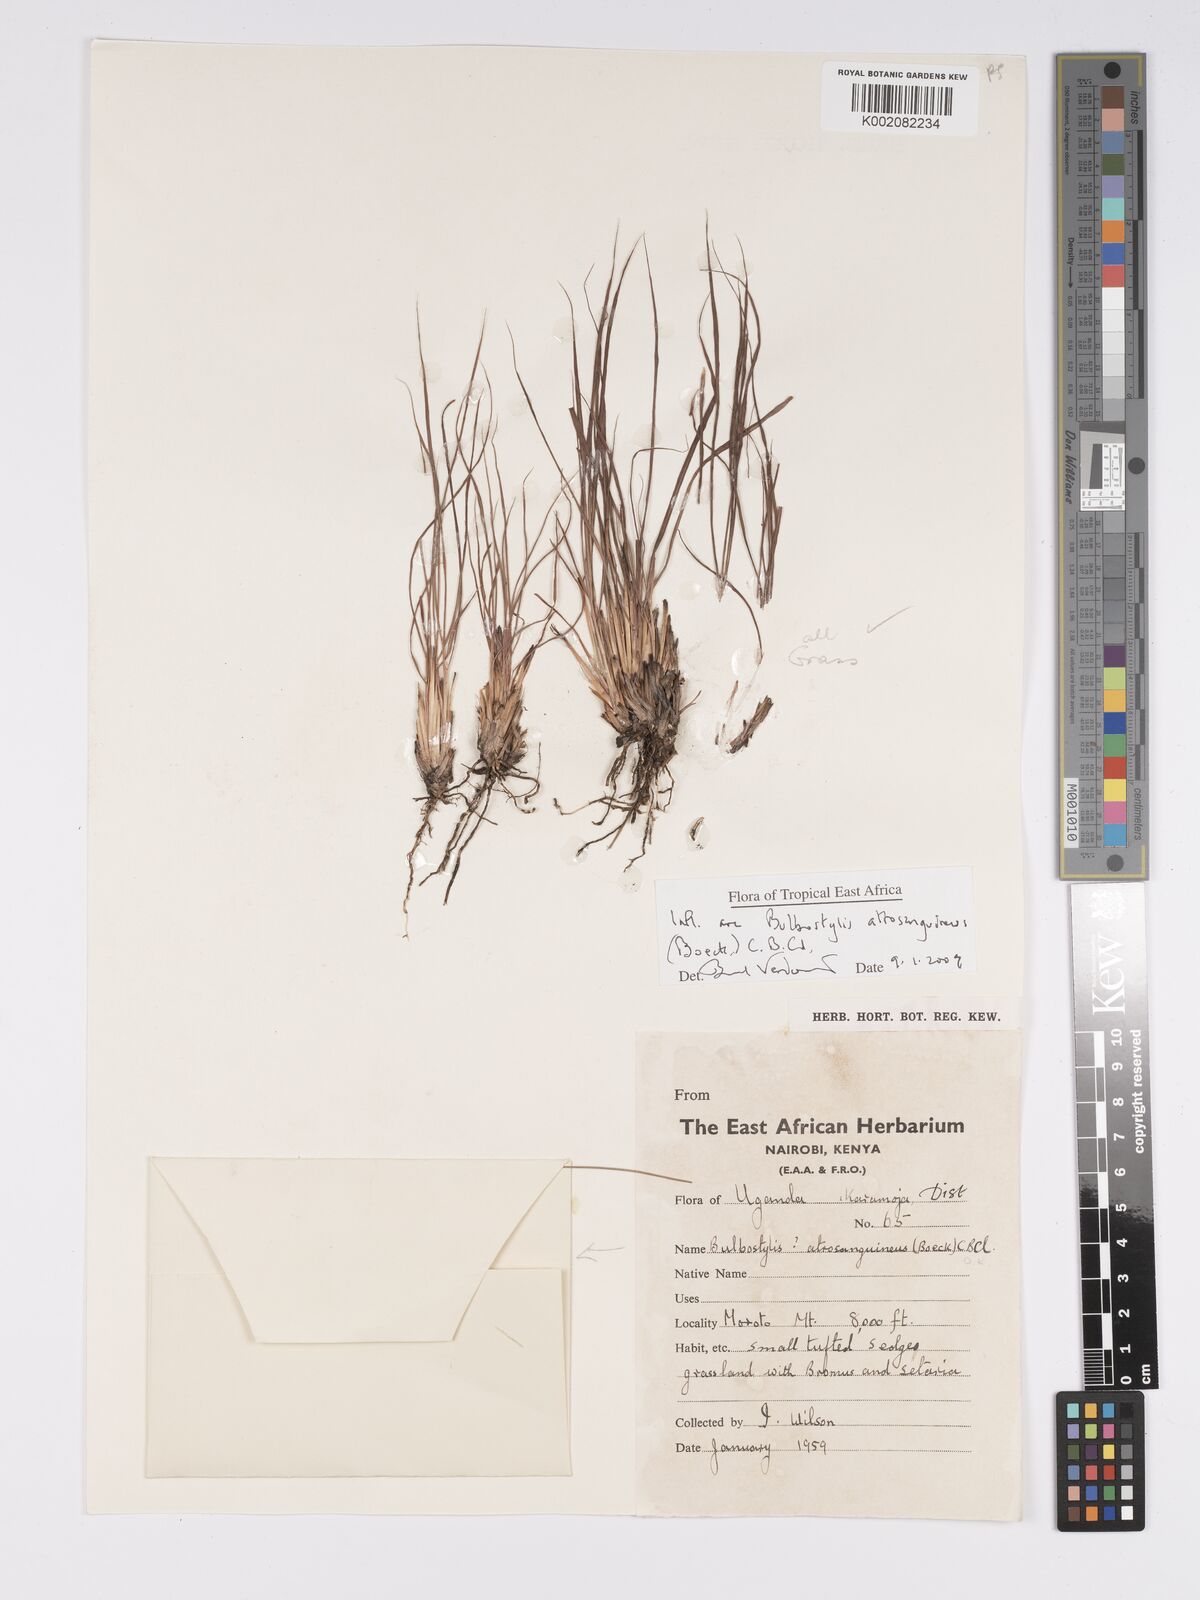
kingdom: Plantae
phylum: Tracheophyta
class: Liliopsida
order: Poales
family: Cyperaceae
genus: Bulbostylis
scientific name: Bulbostylis atrosanguinea
